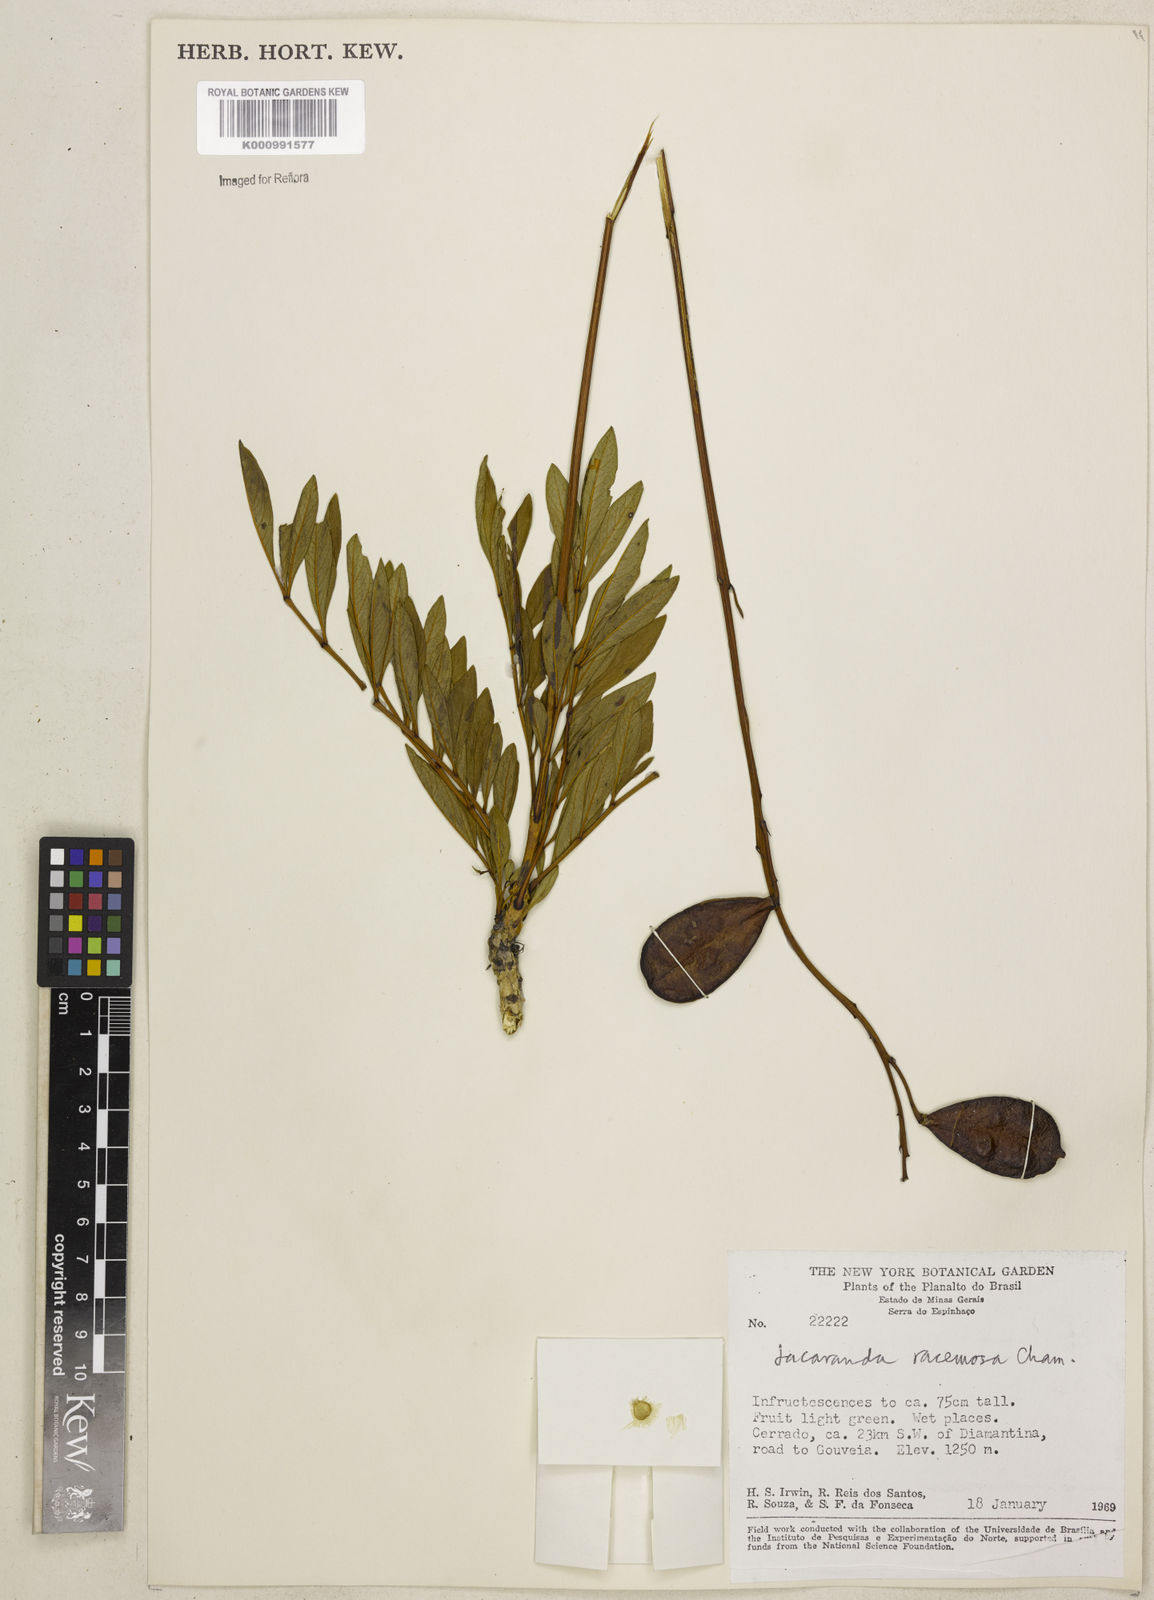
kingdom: Plantae
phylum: Tracheophyta
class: Magnoliopsida
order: Lamiales
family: Bignoniaceae
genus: Jacaranda
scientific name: Jacaranda racemosa
